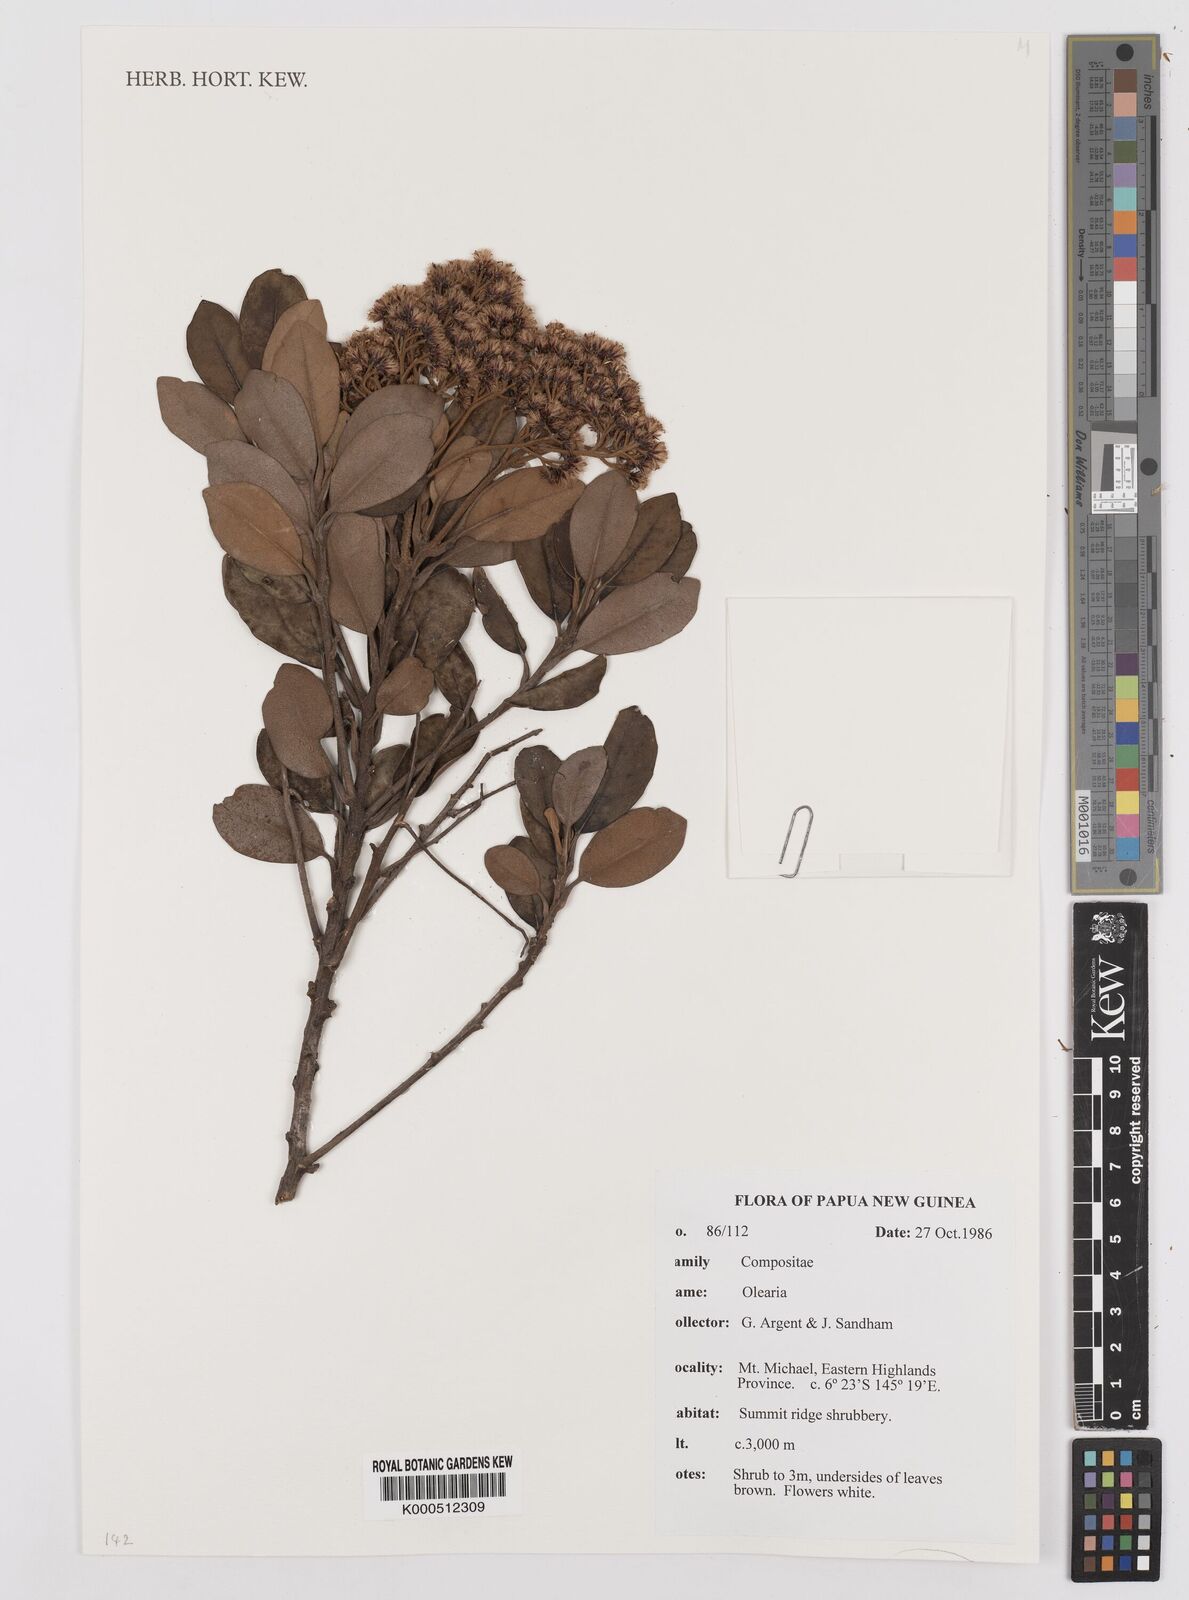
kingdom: Plantae
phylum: Tracheophyta
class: Magnoliopsida
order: Asterales
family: Asteraceae
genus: Olearia
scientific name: Olearia
